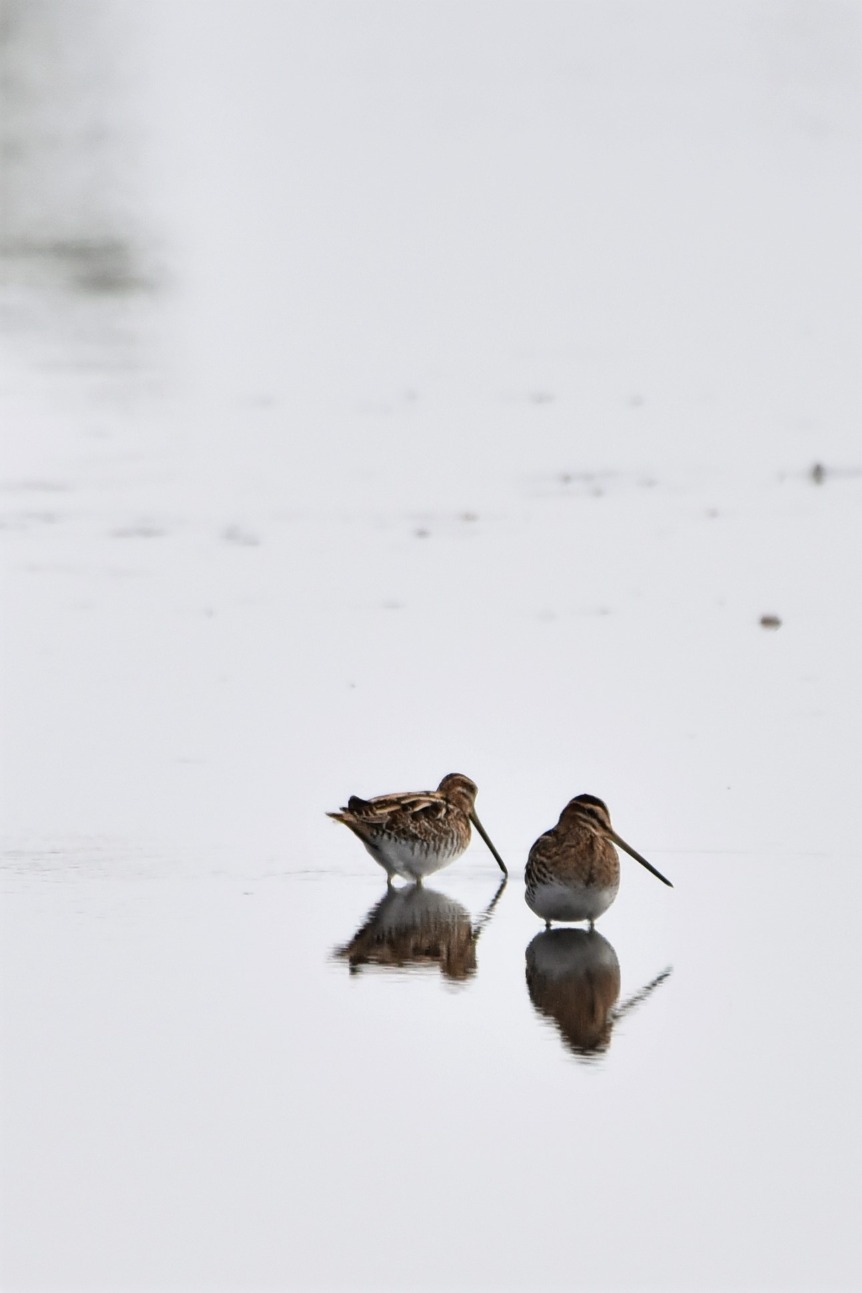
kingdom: Animalia
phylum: Chordata
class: Aves
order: Charadriiformes
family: Scolopacidae
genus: Gallinago
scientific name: Gallinago gallinago
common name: Dobbeltbekkasin
